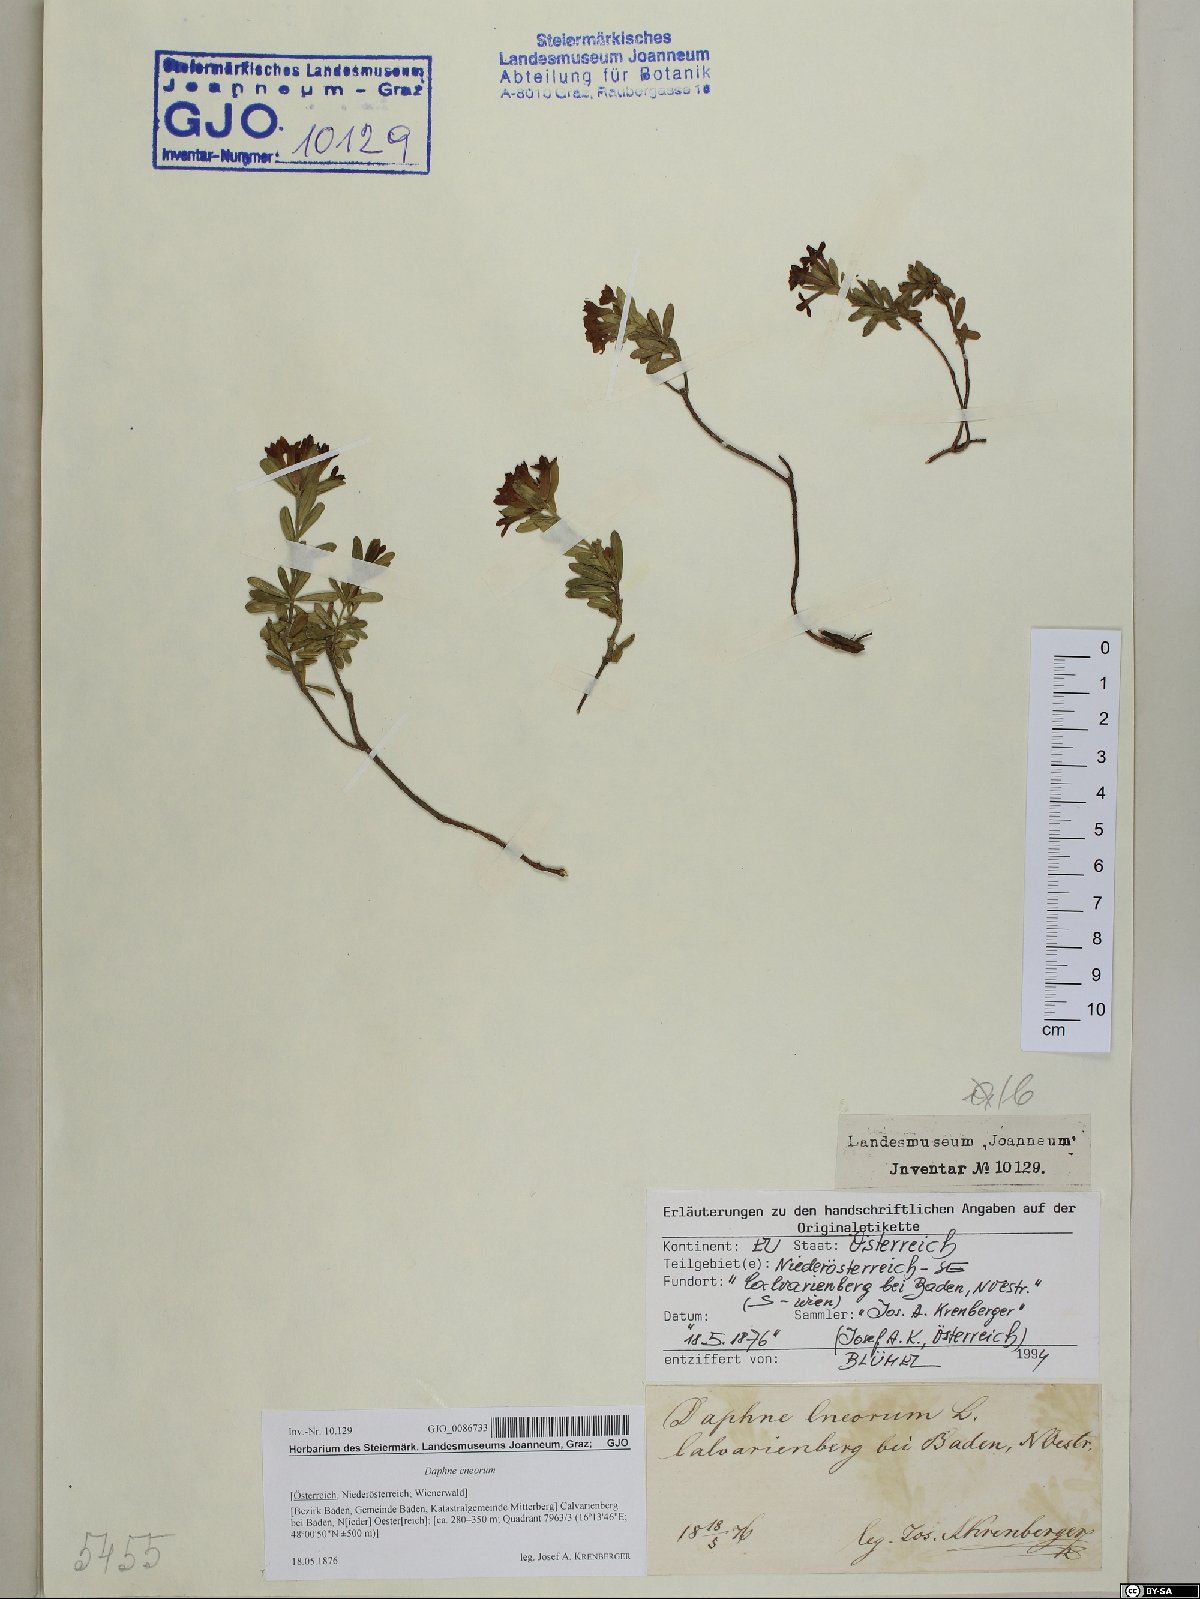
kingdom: Plantae
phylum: Tracheophyta
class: Magnoliopsida
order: Malvales
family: Thymelaeaceae
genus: Daphne
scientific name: Daphne cneorum
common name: Garland-flower
